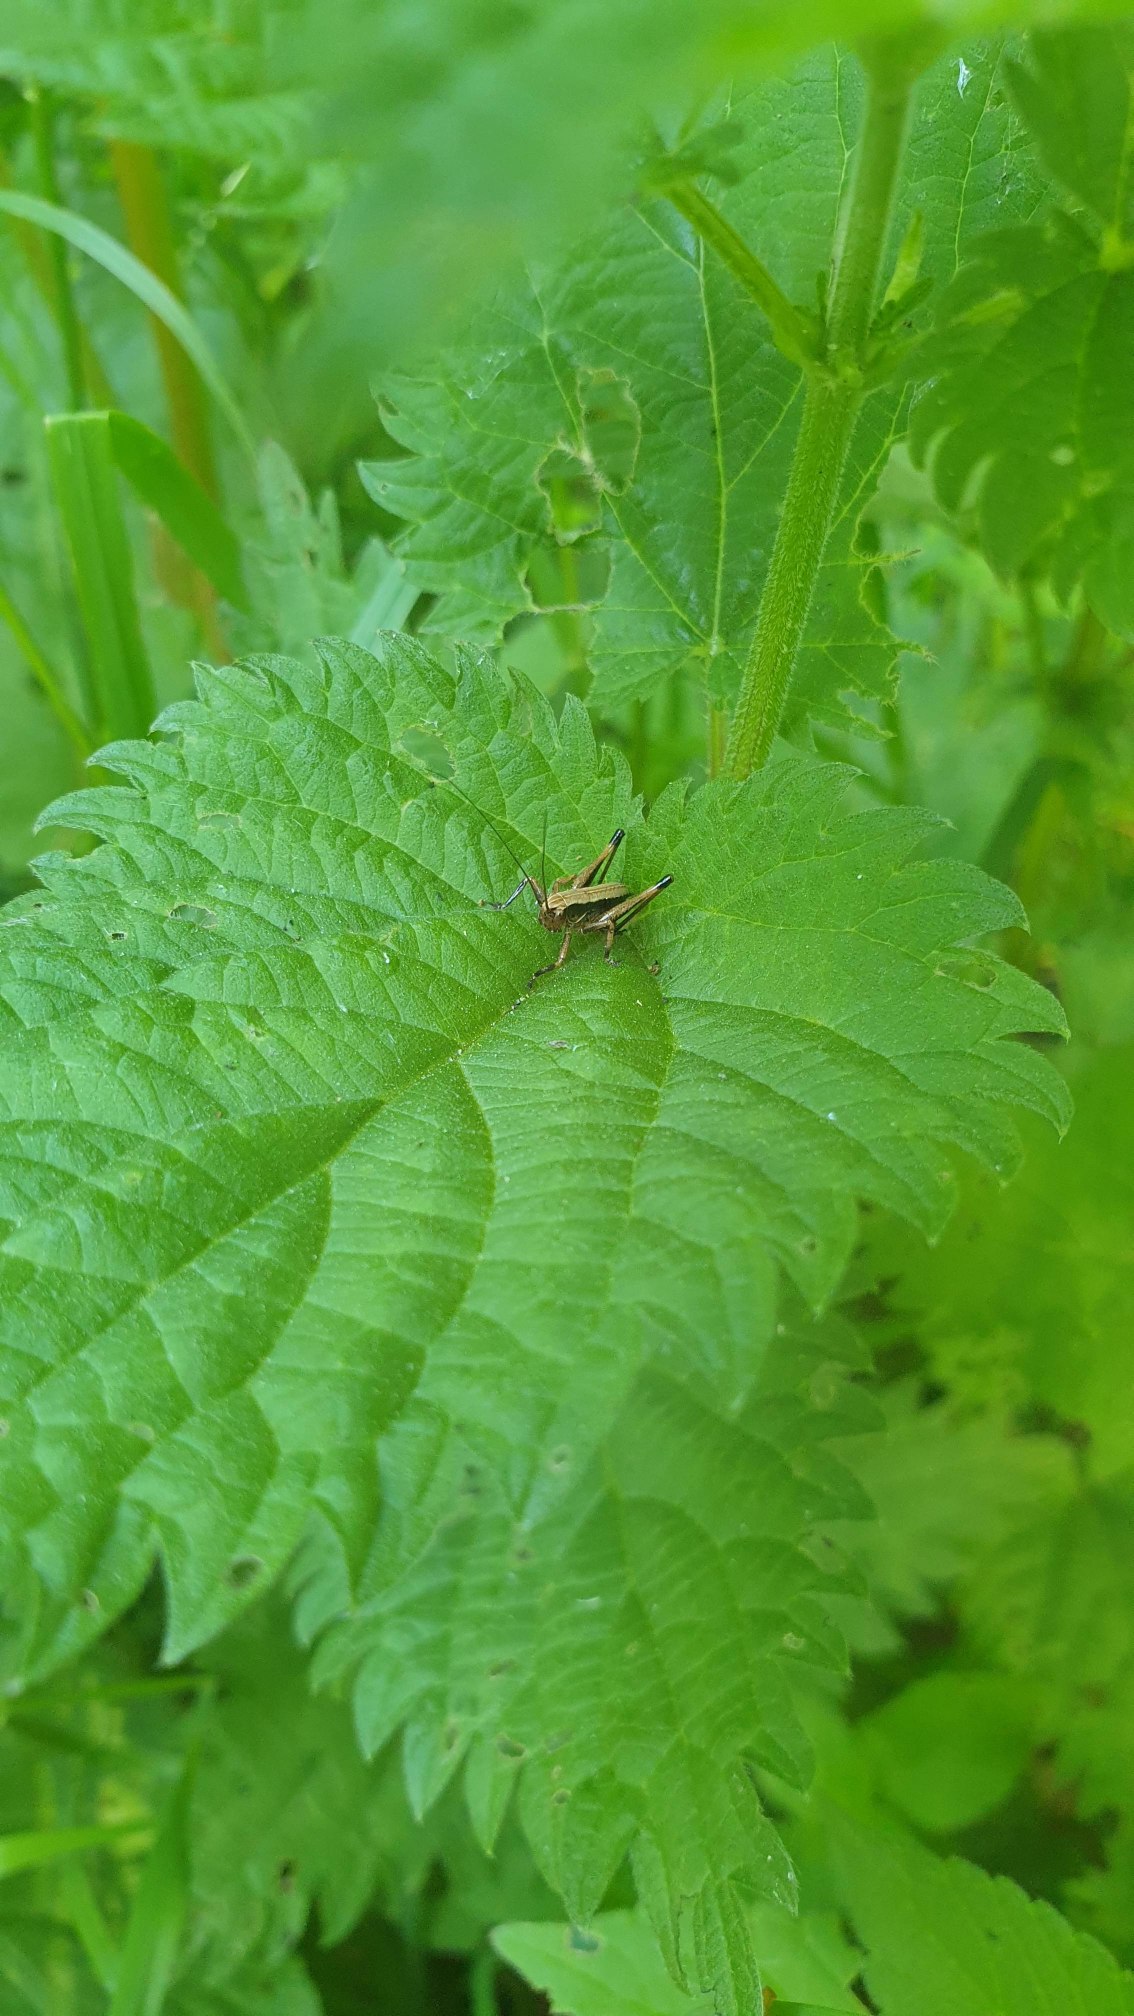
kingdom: Animalia
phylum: Arthropoda
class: Insecta
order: Orthoptera
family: Tettigoniidae
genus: Pholidoptera
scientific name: Pholidoptera griseoaptera
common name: Buskgræshoppe
